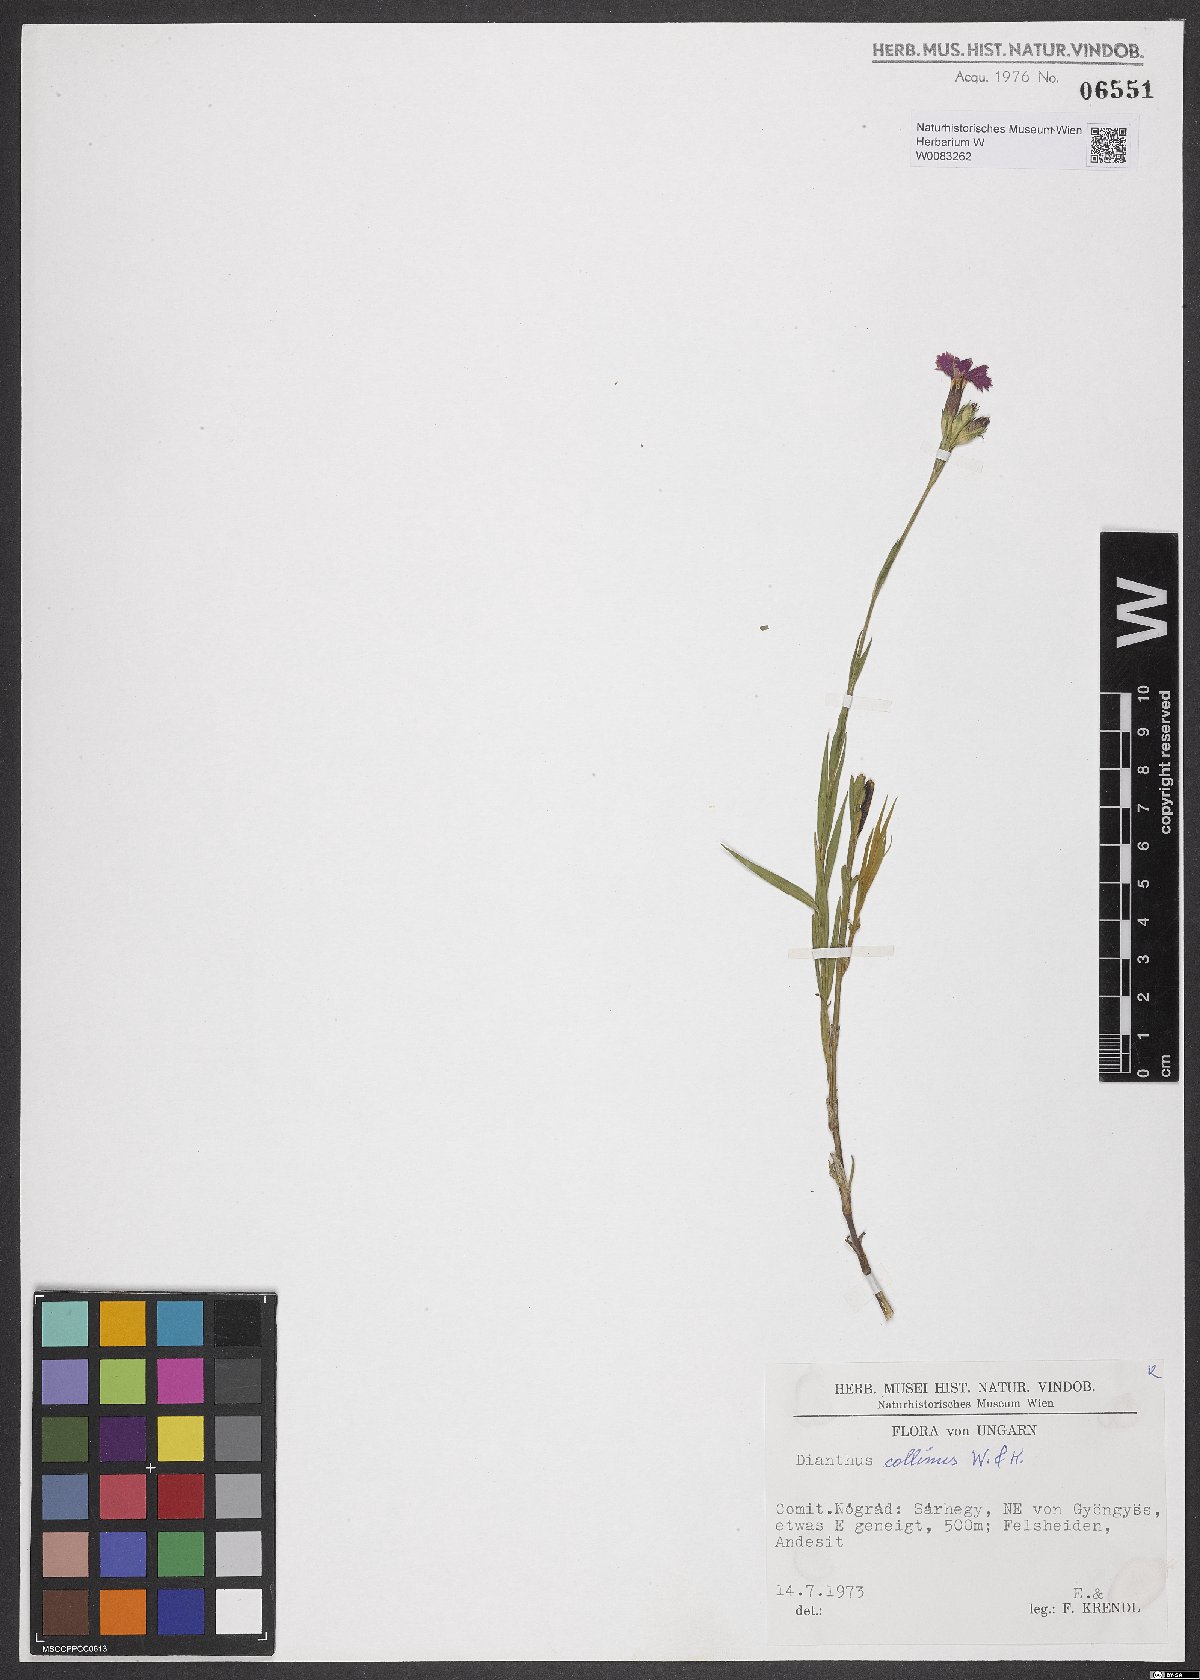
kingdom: Plantae
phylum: Tracheophyta
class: Magnoliopsida
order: Caryophyllales
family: Caryophyllaceae
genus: Dianthus
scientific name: Dianthus collinus
